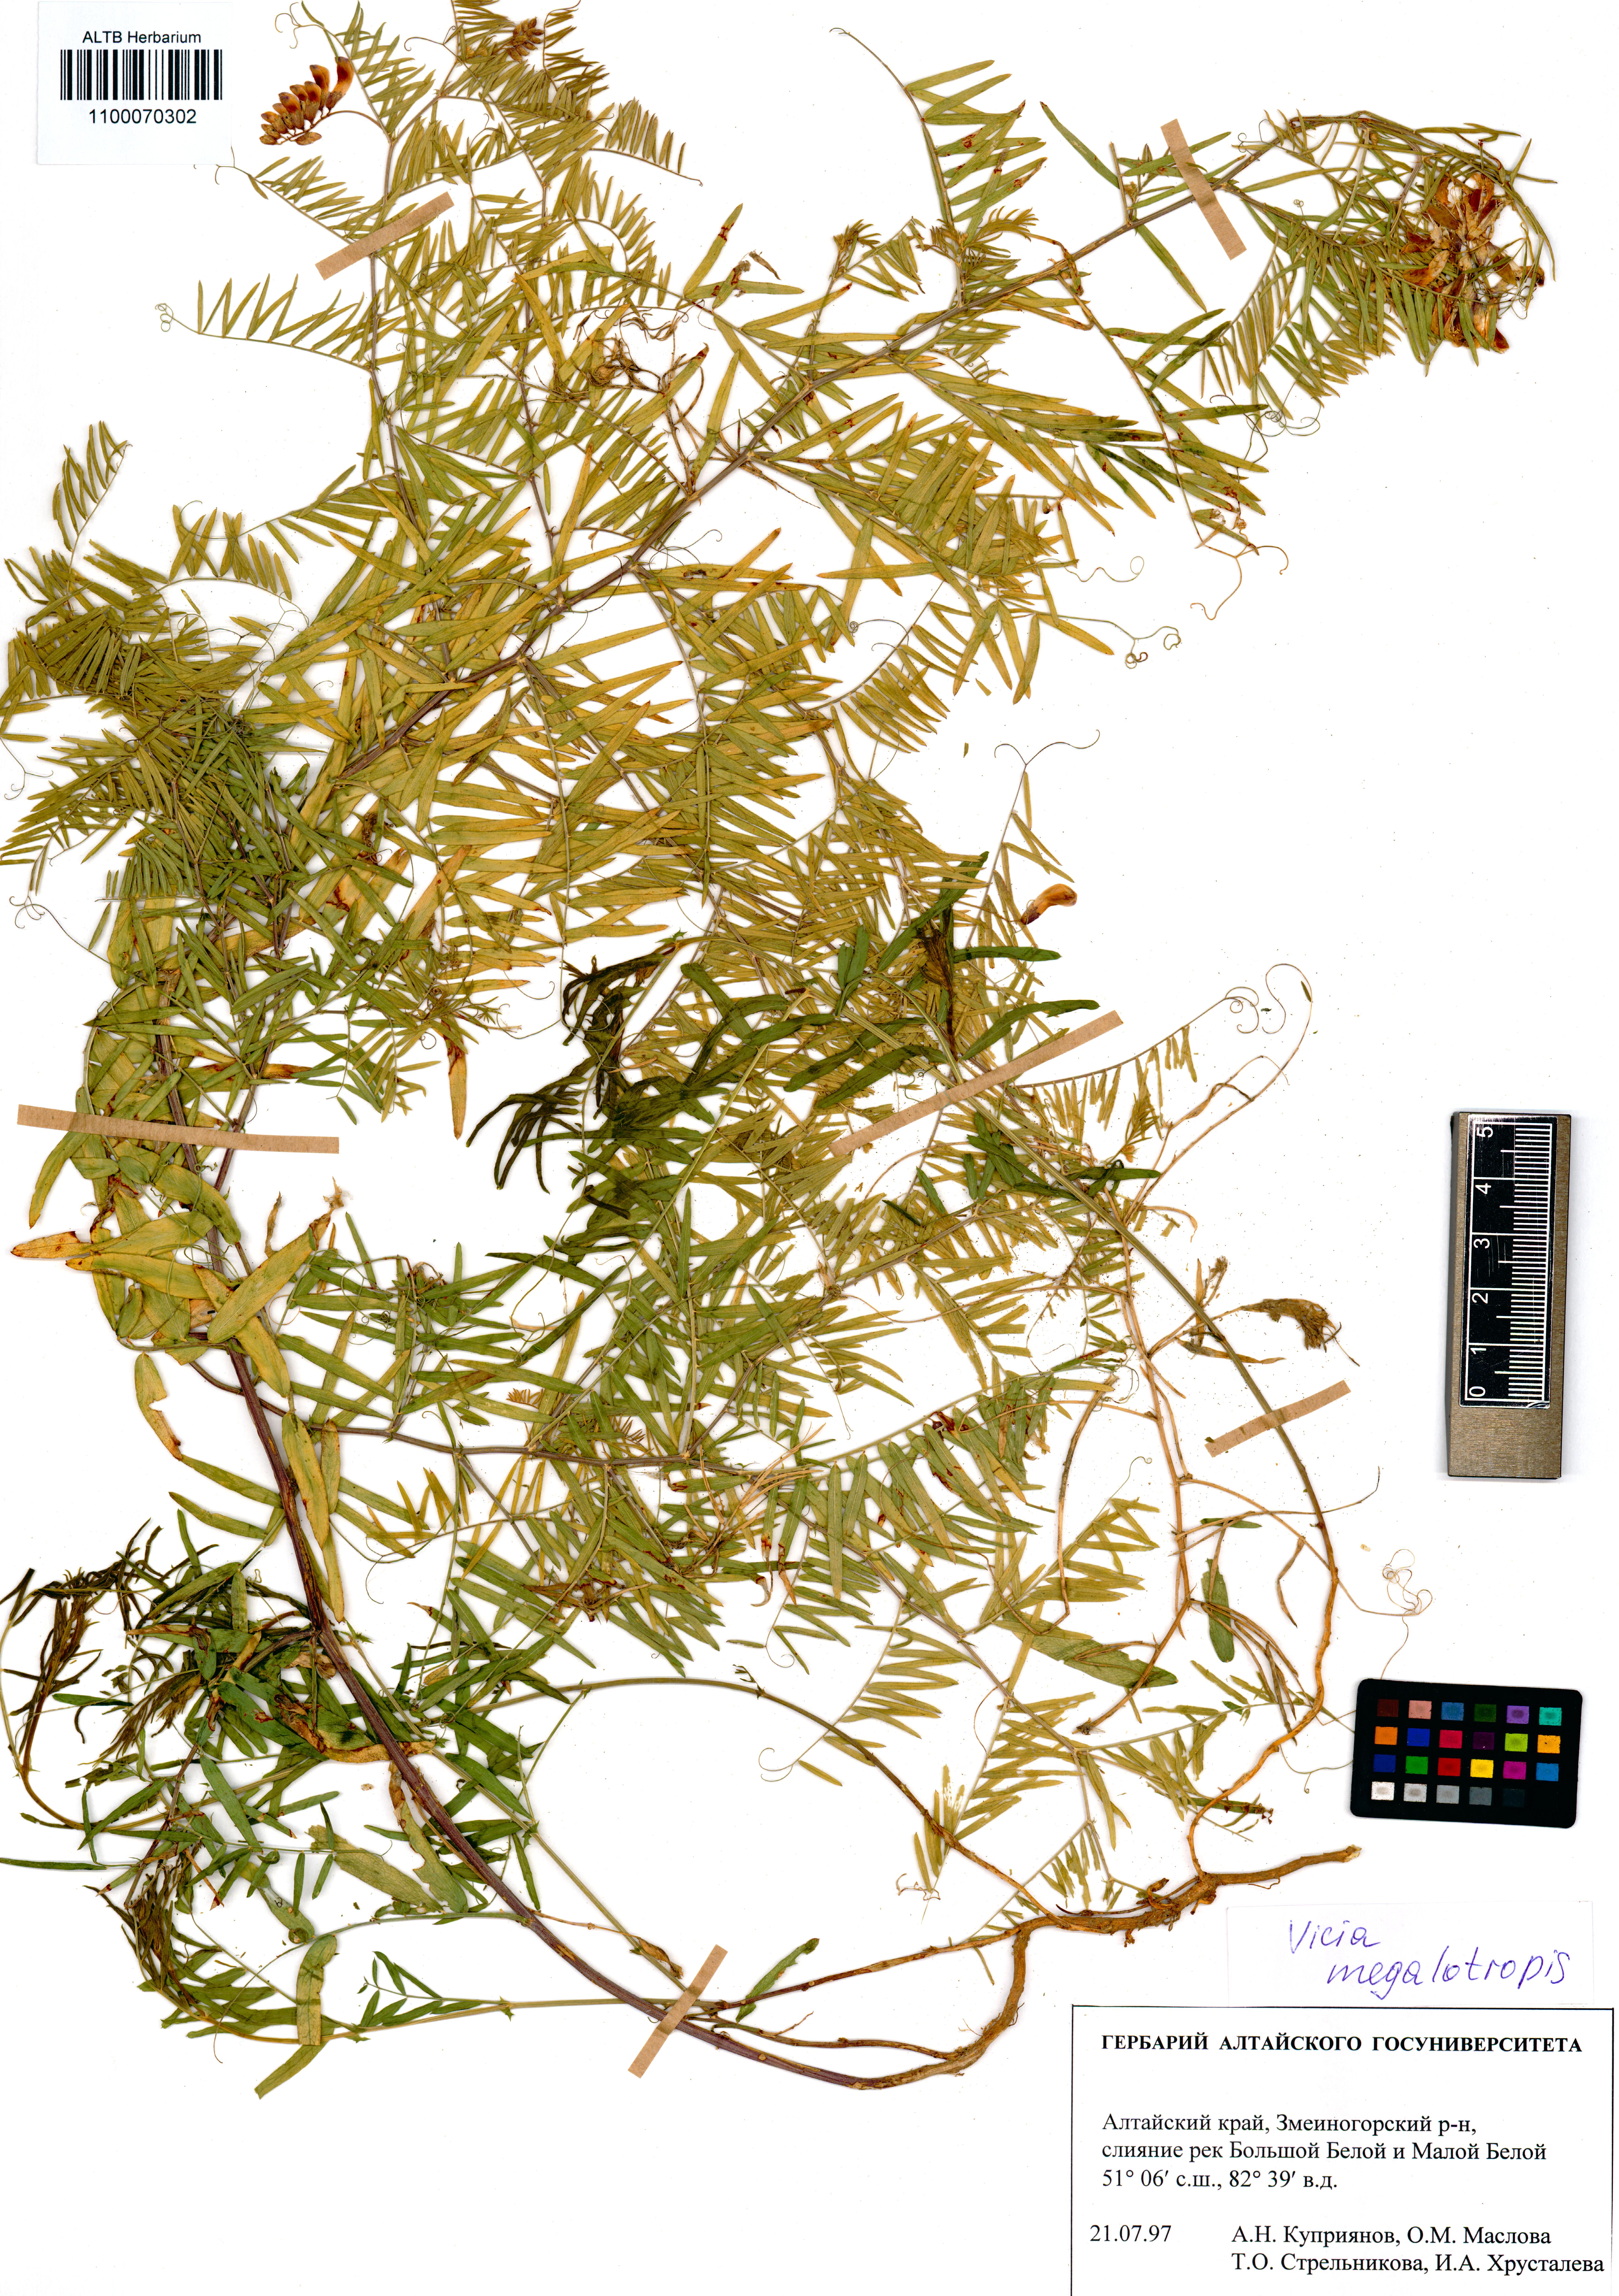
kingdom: Plantae
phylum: Tracheophyta
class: Magnoliopsida
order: Fabales
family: Fabaceae
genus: Vicia
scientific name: Vicia megalotropis
